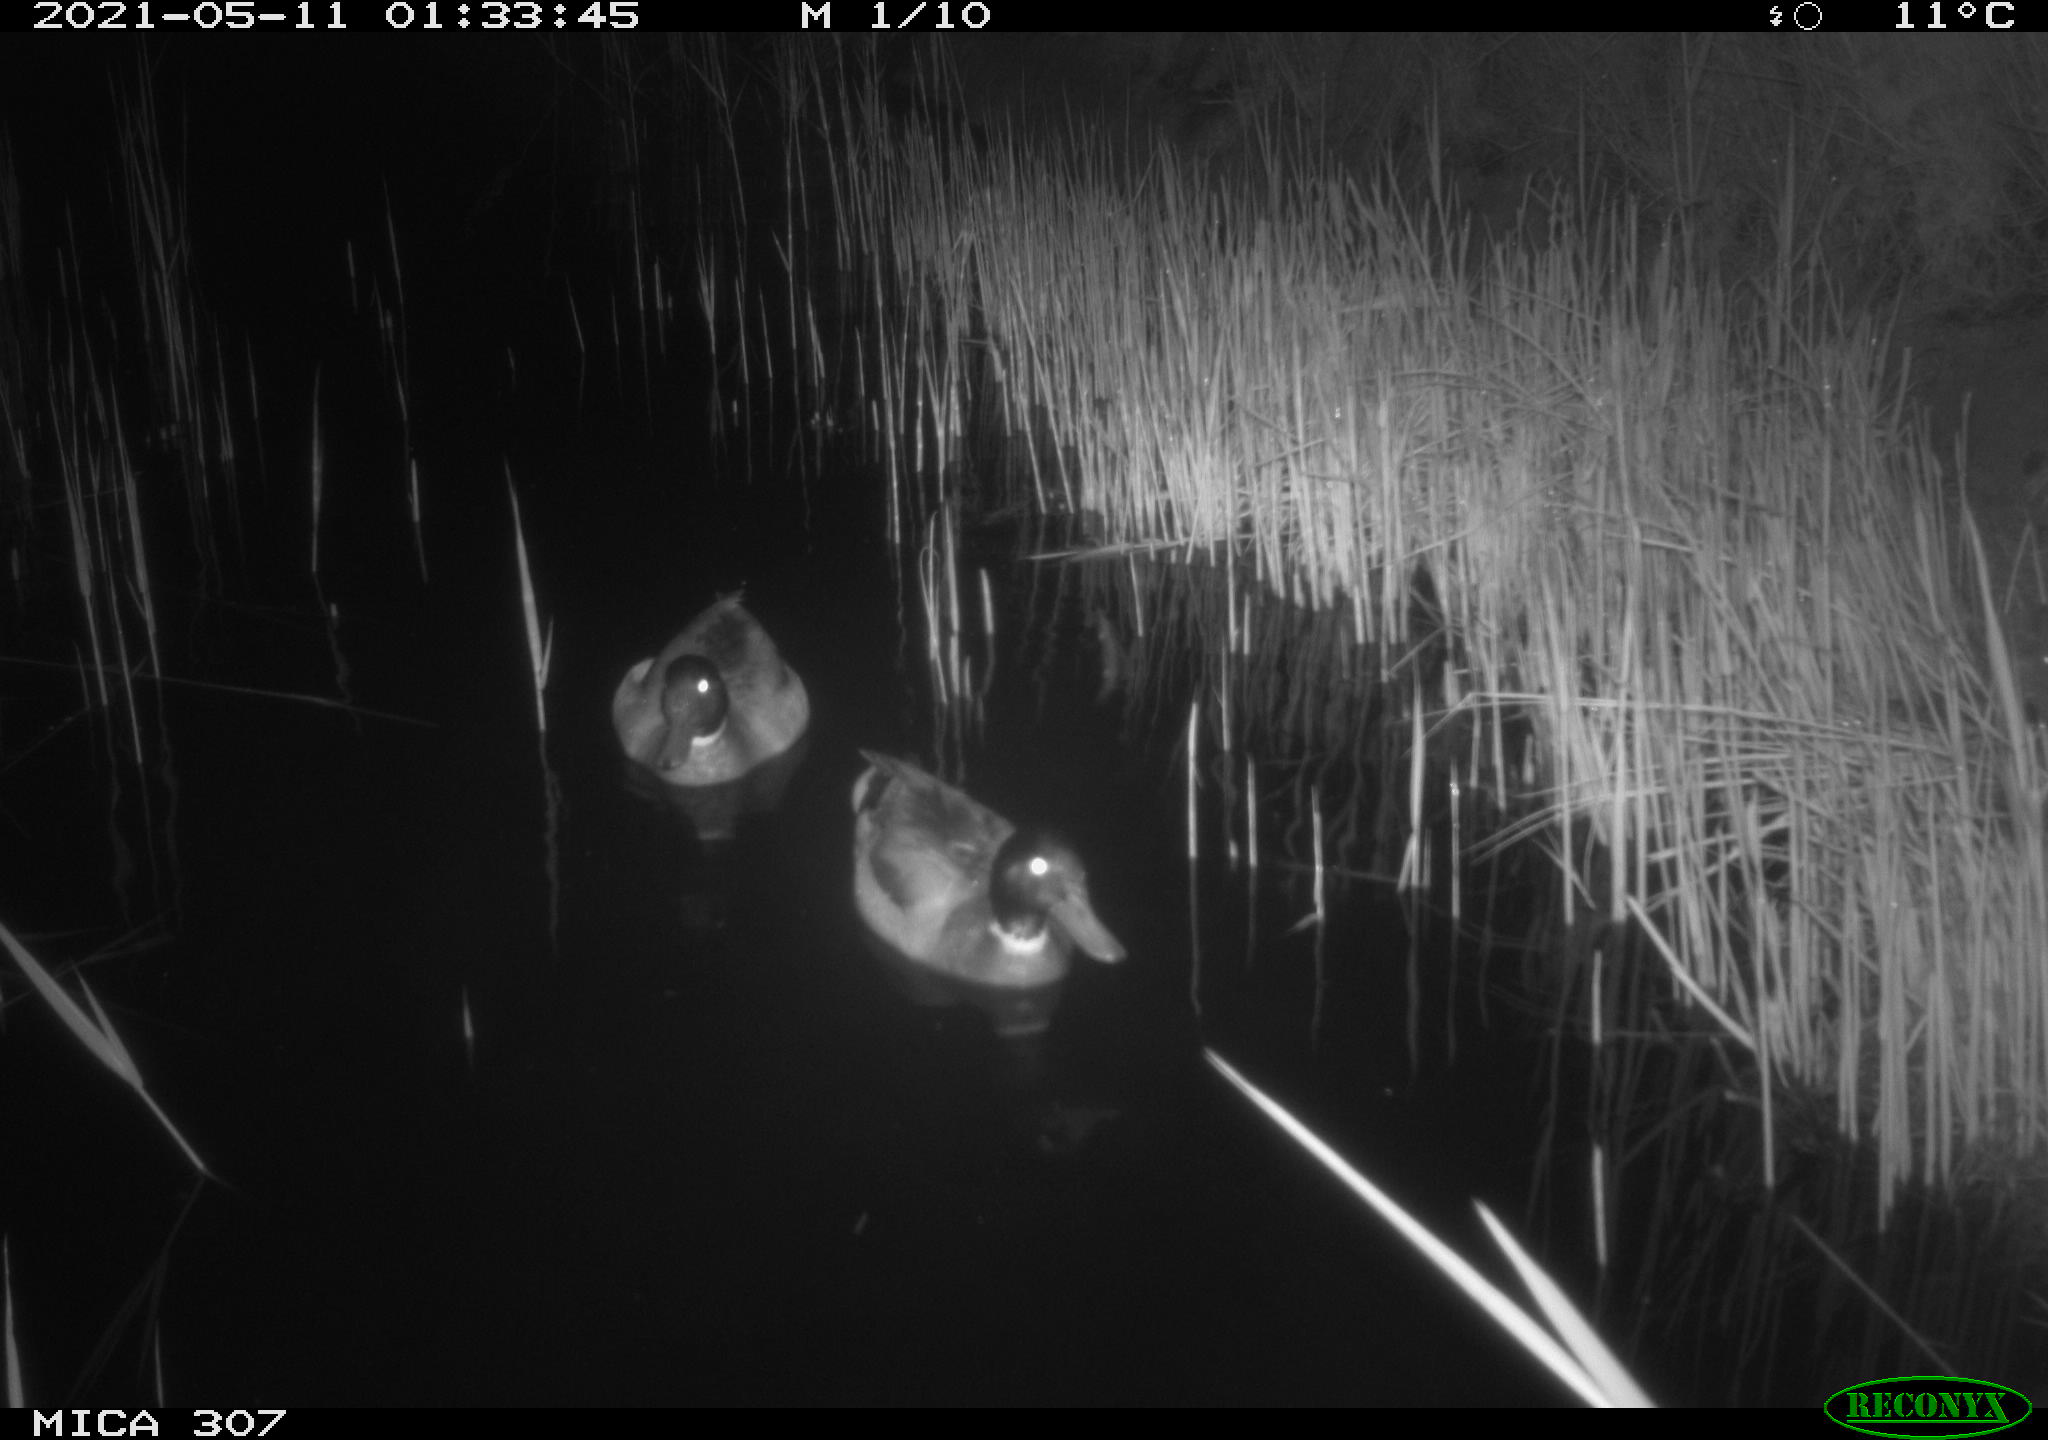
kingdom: Animalia
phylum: Chordata
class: Aves
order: Anseriformes
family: Anatidae
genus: Anas
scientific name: Anas platyrhynchos
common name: Mallard
